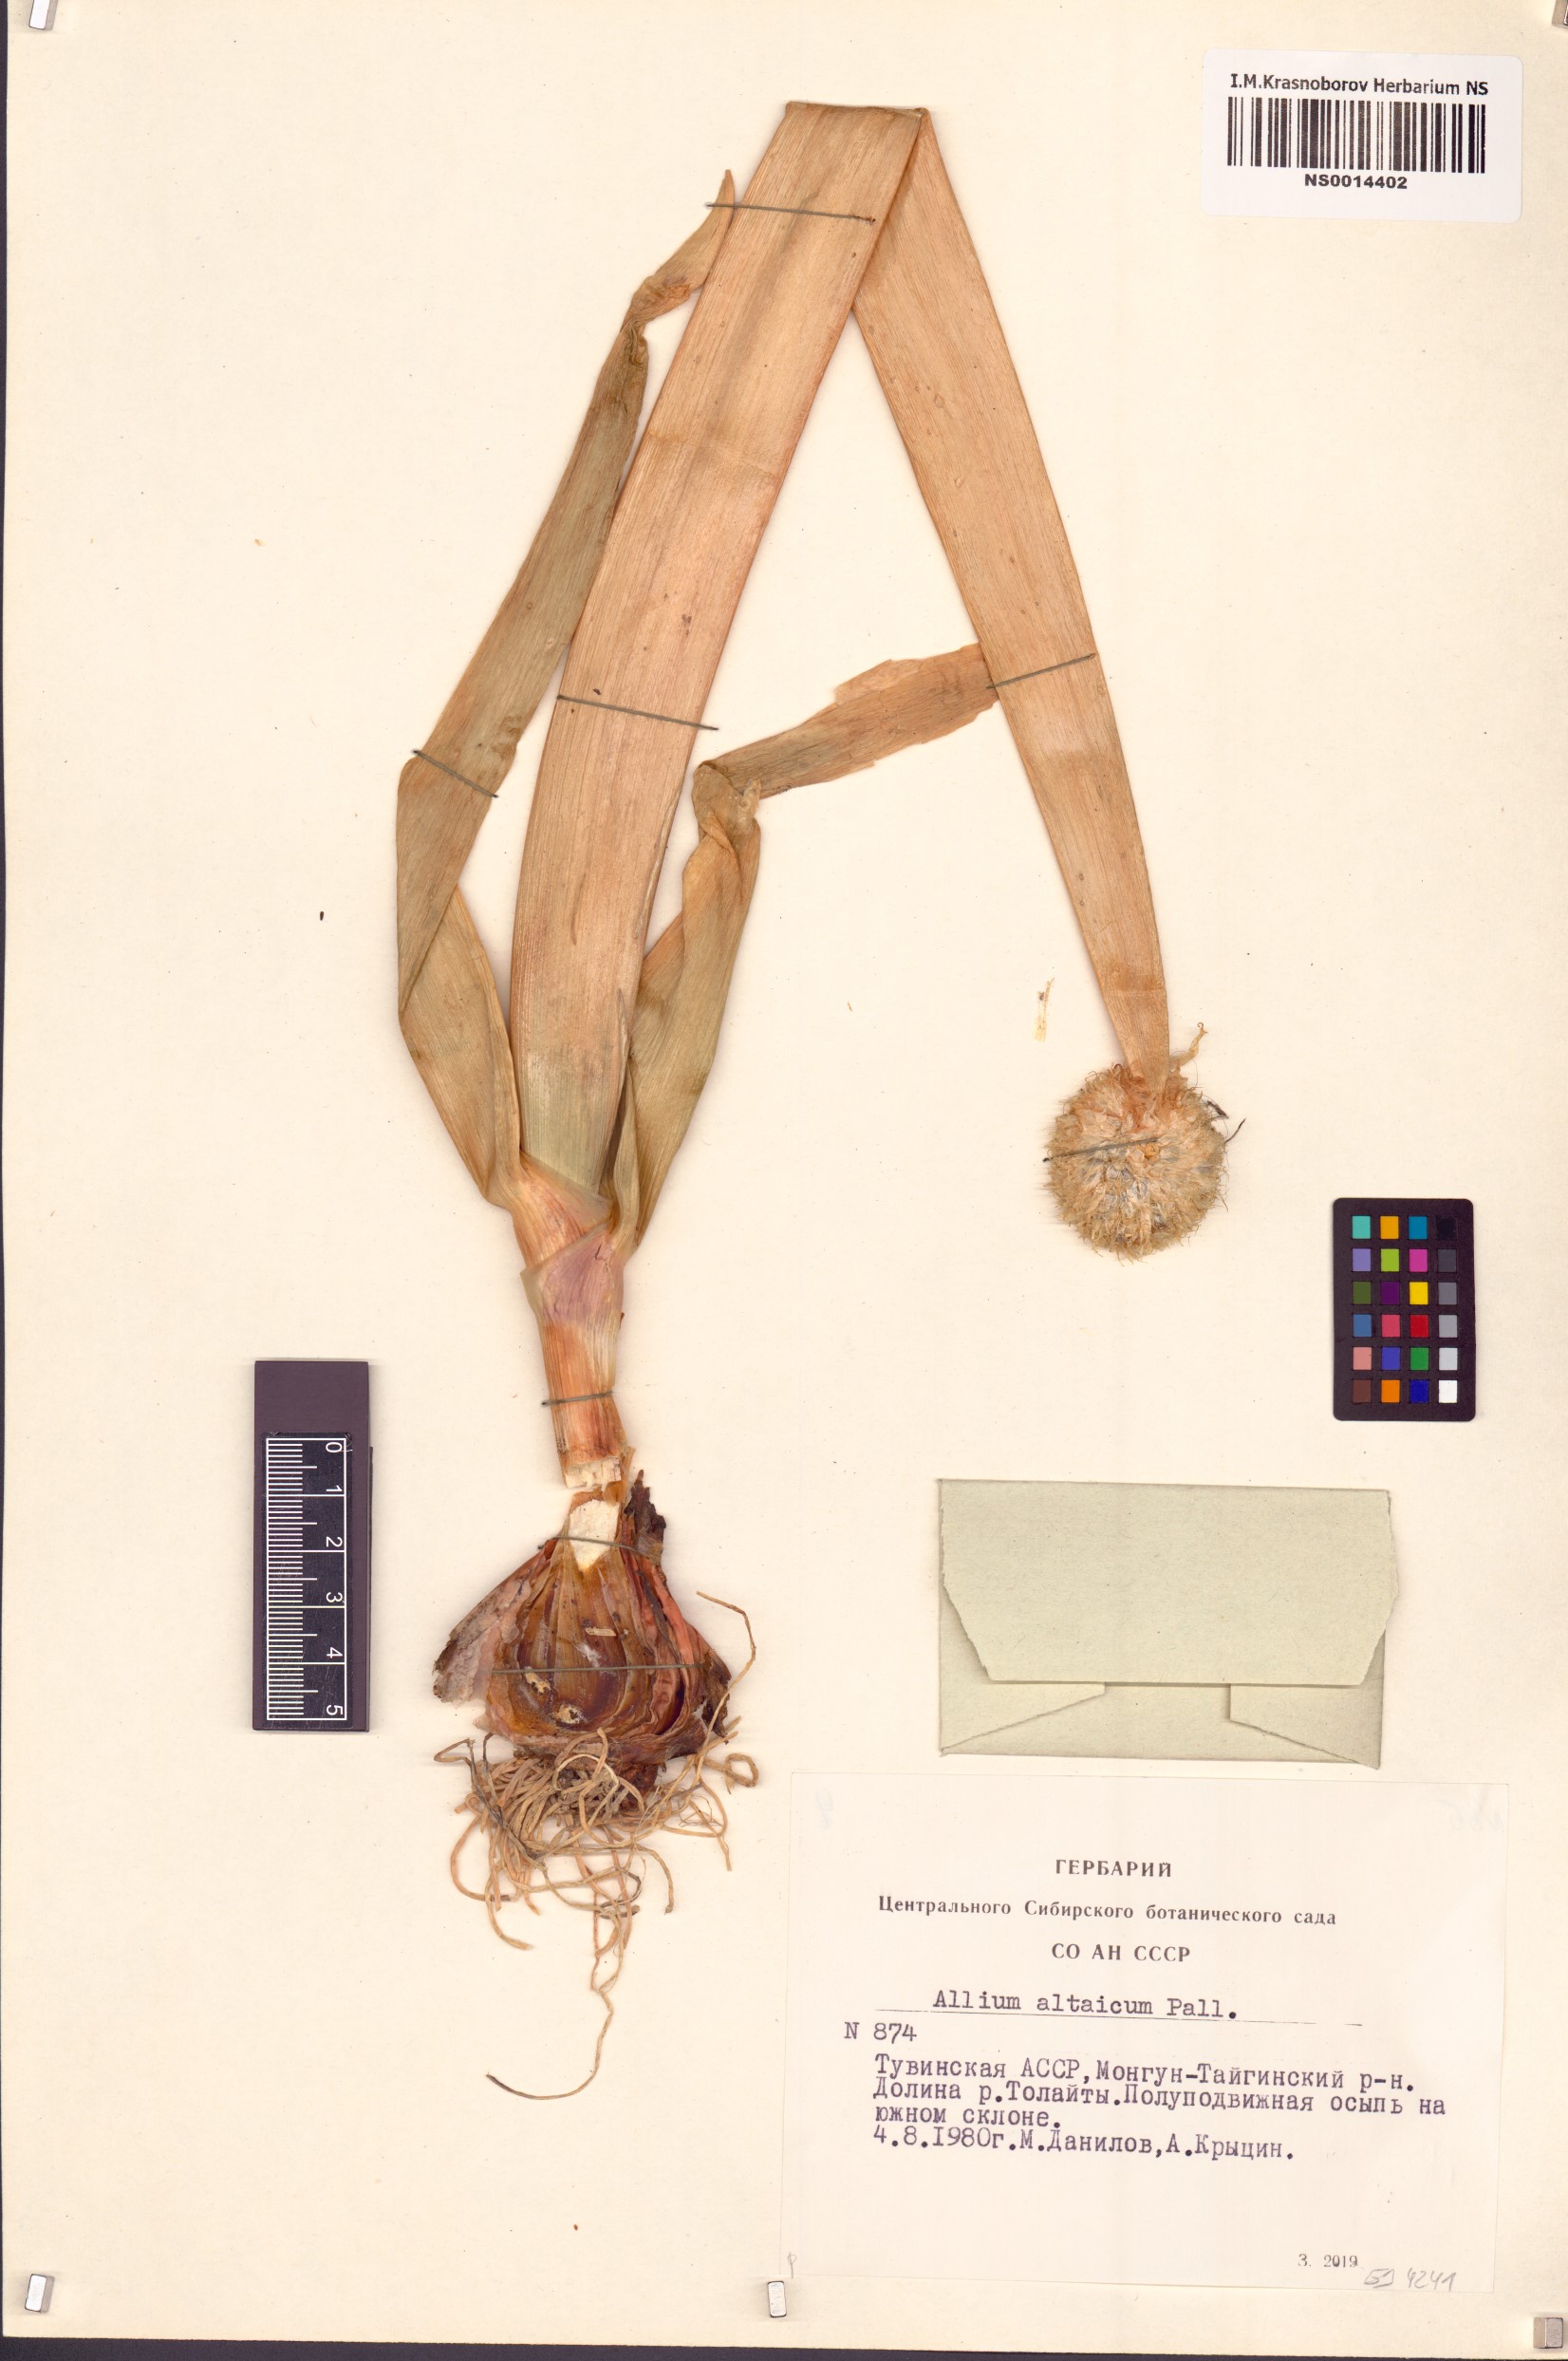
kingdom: Plantae
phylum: Tracheophyta
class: Liliopsida
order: Asparagales
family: Amaryllidaceae
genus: Allium
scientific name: Allium altaicum
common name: Altai onion
